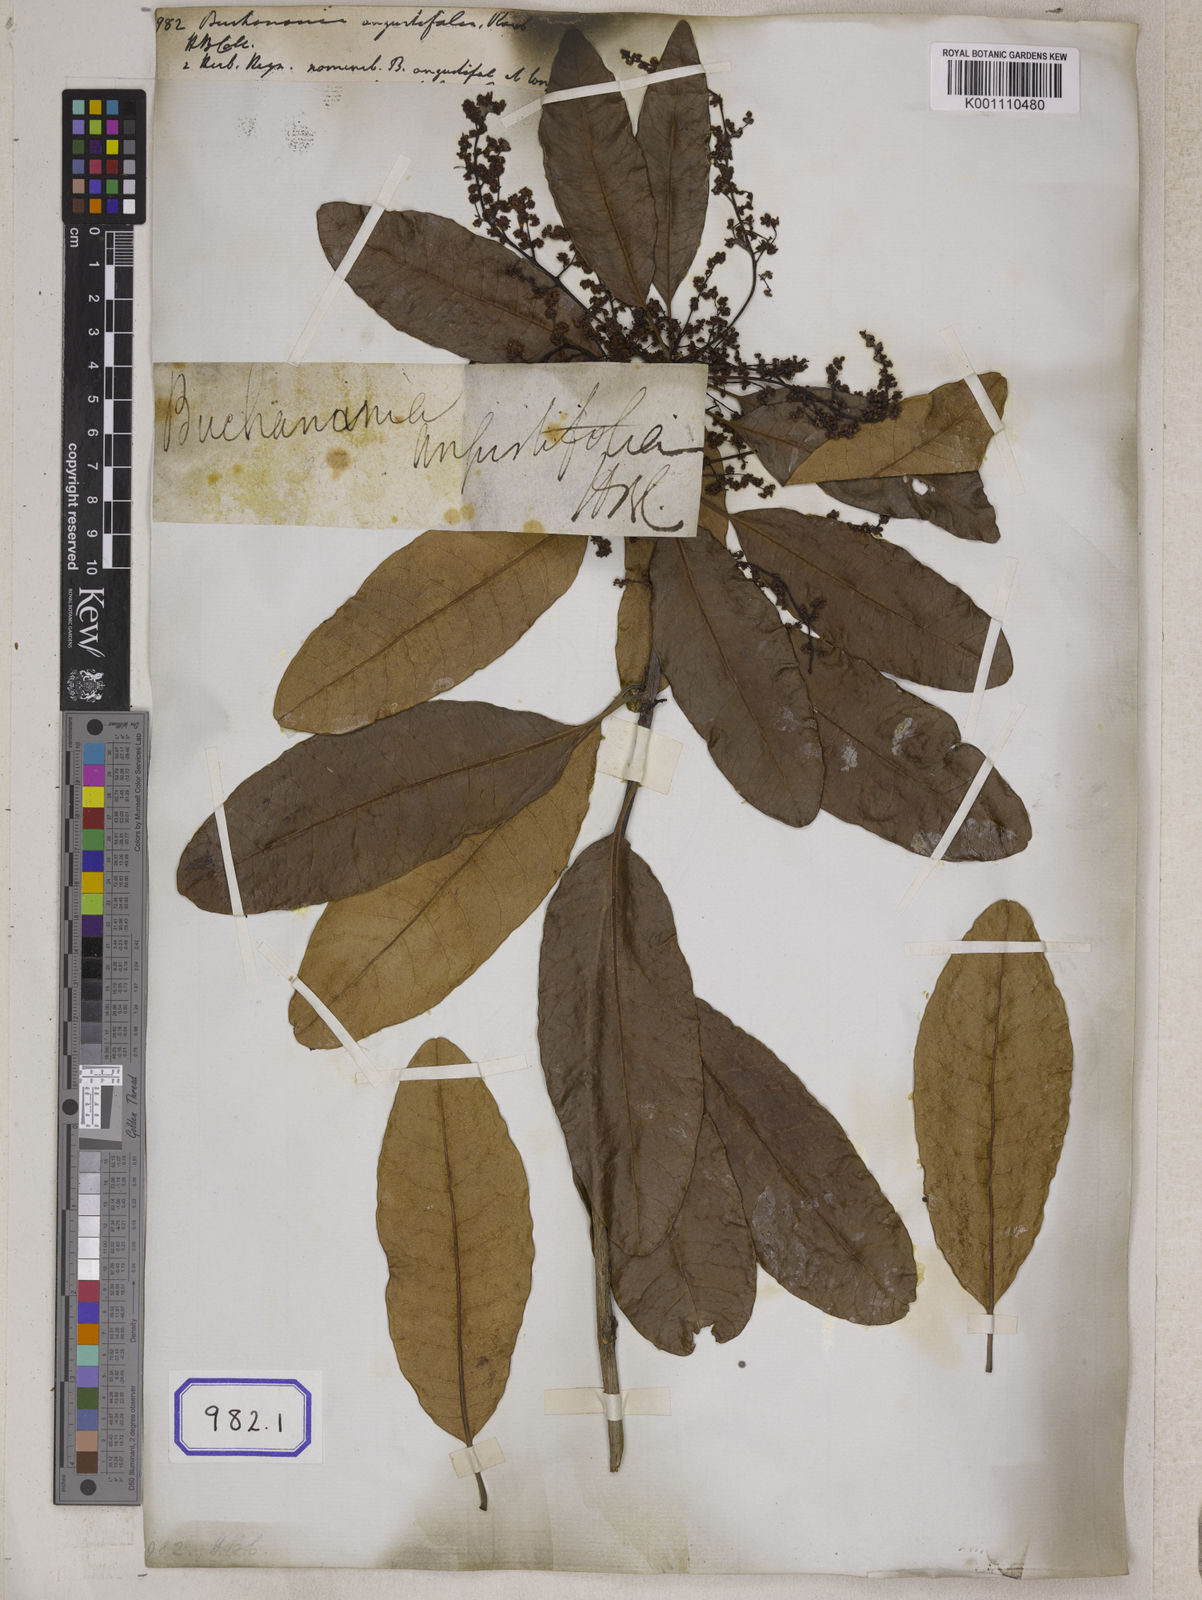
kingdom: Plantae
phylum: Tracheophyta
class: Magnoliopsida
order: Sapindales
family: Anacardiaceae
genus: Buchanania
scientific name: Buchanania axillaris
